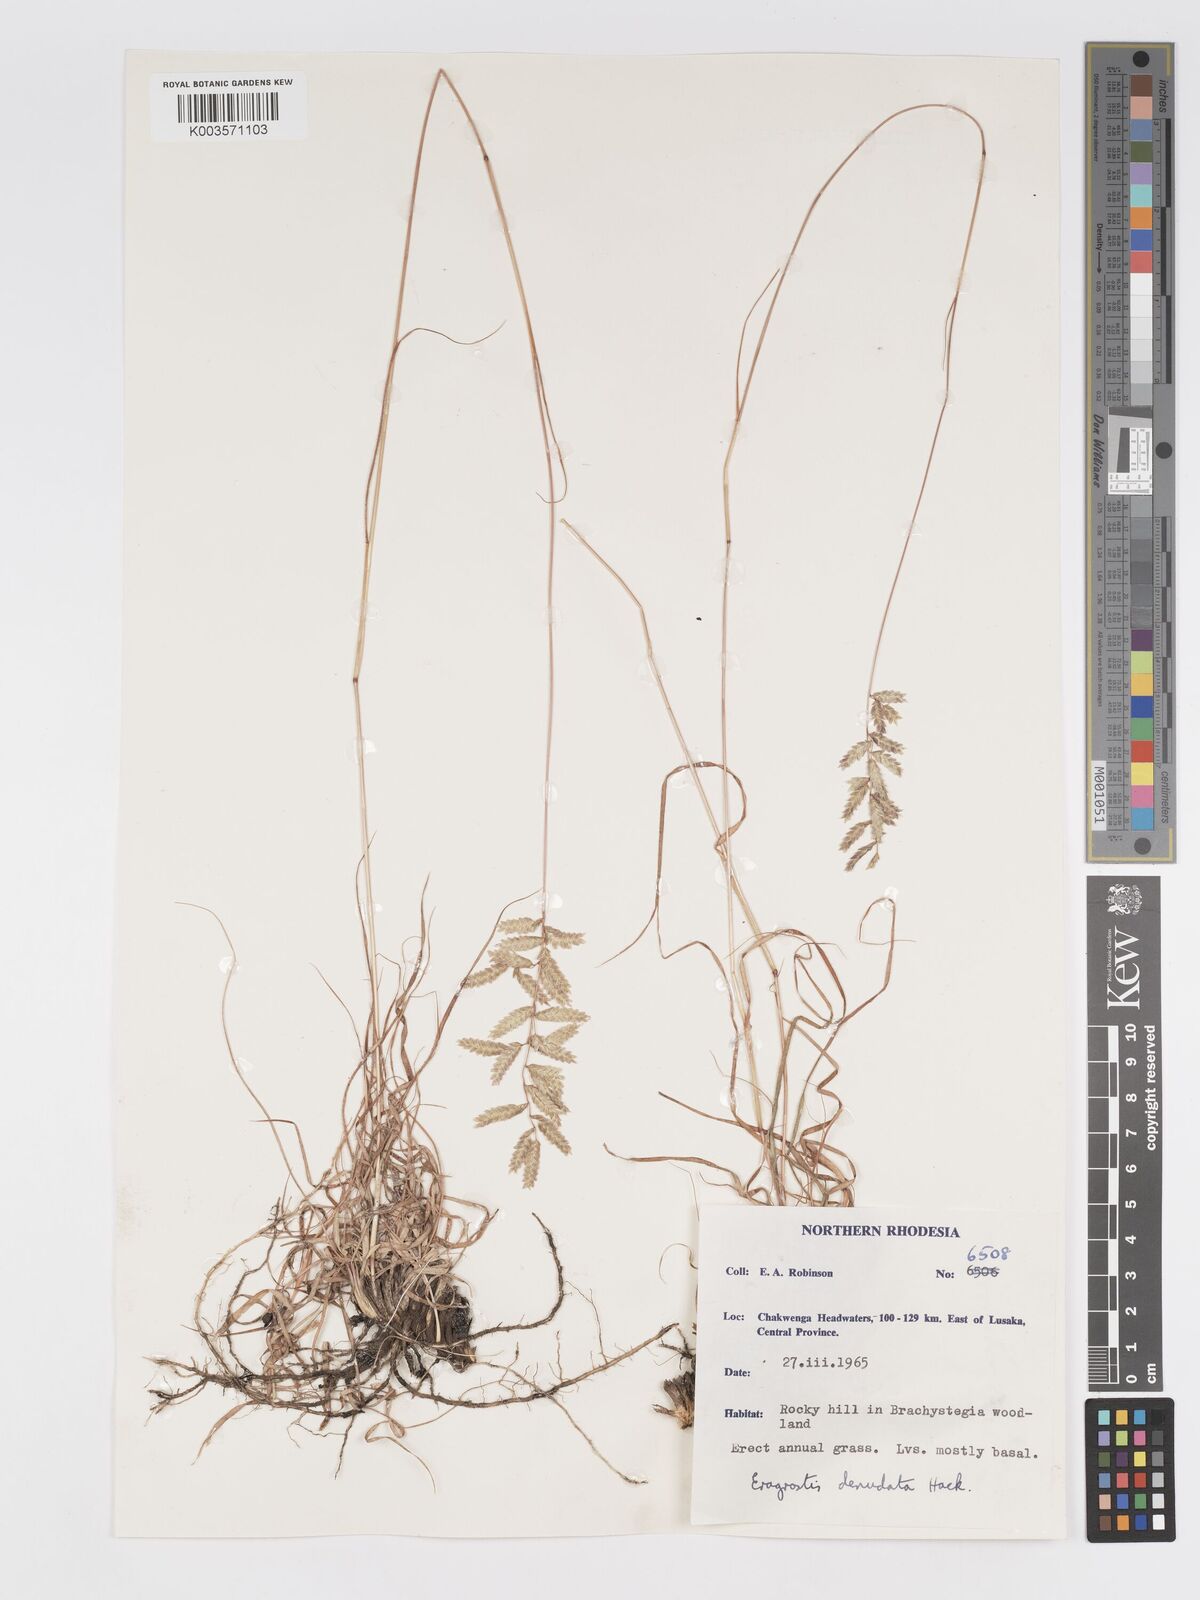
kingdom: Plantae
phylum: Tracheophyta
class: Liliopsida
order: Poales
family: Poaceae
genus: Eragrostis
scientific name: Eragrostis nindensis
